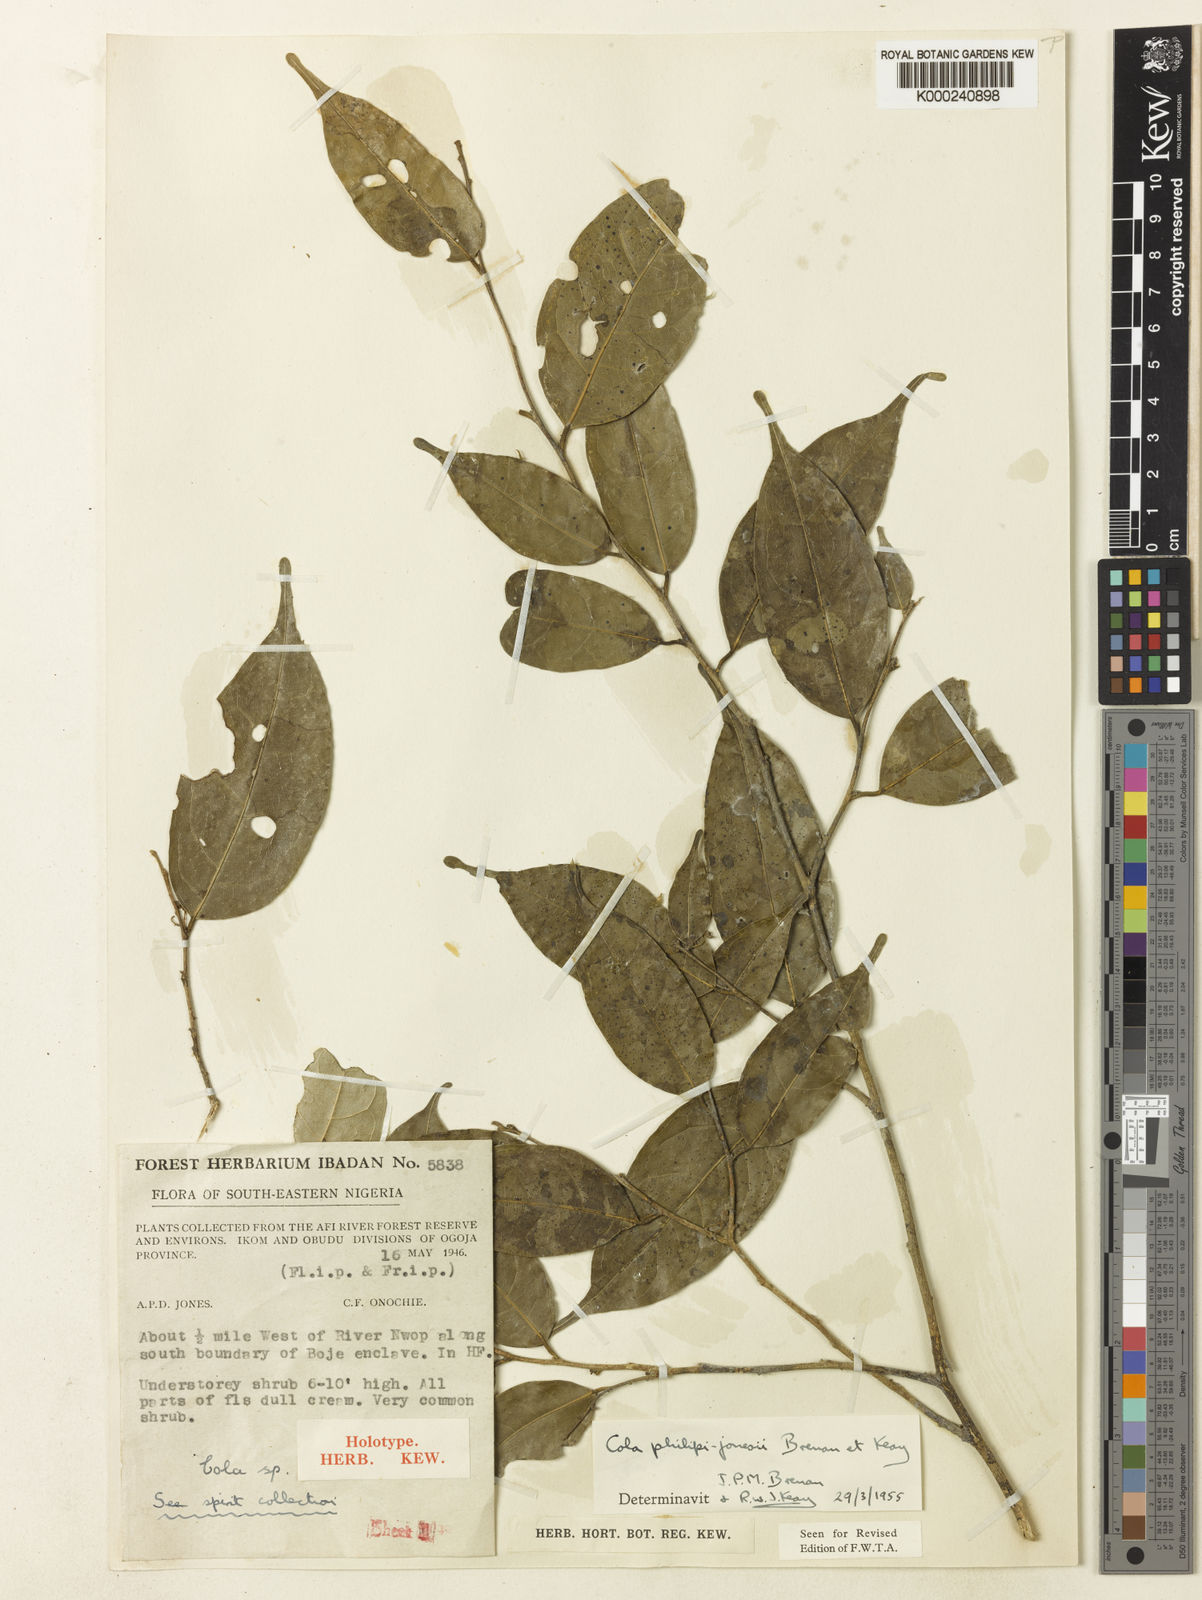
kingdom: Plantae
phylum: Tracheophyta
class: Magnoliopsida
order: Malvales
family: Malvaceae
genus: Cola
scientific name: Cola philipi-jonesii
